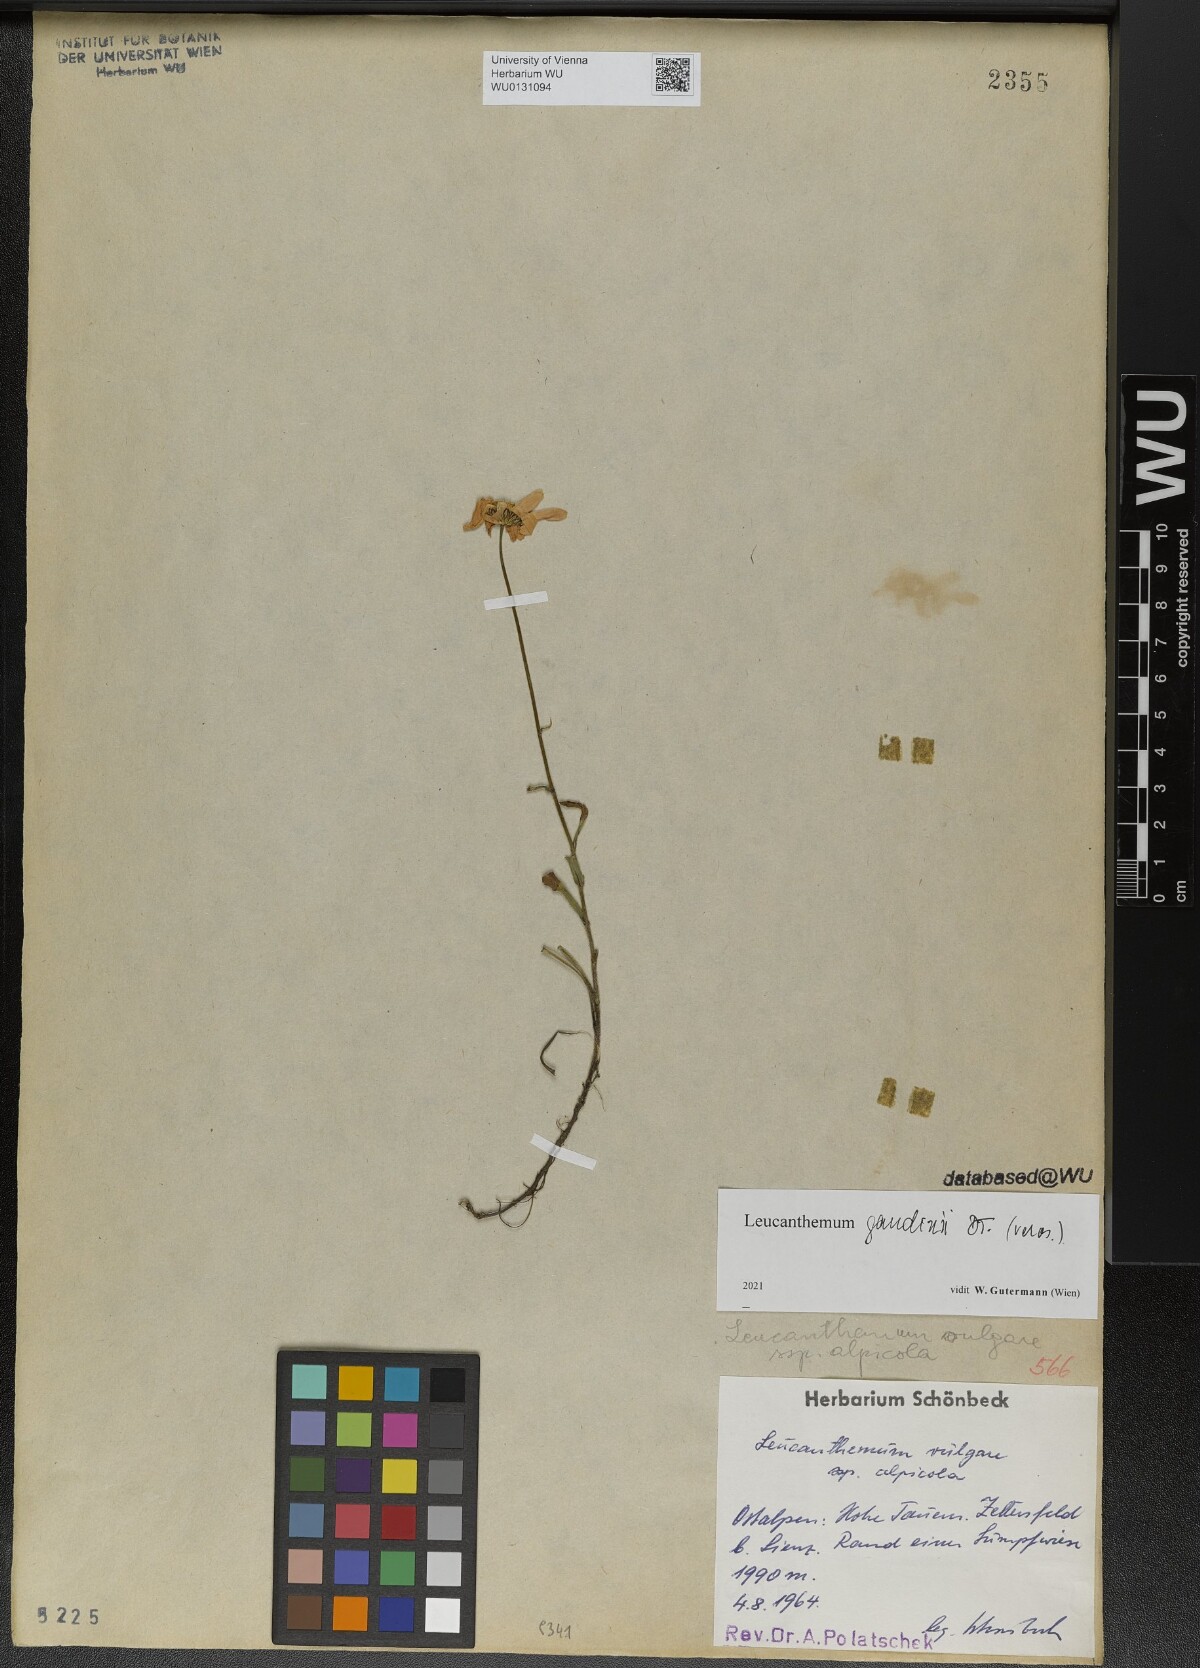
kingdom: Plantae
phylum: Tracheophyta
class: Magnoliopsida
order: Asterales
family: Asteraceae
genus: Leucanthemum
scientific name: Leucanthemum gaudinii
